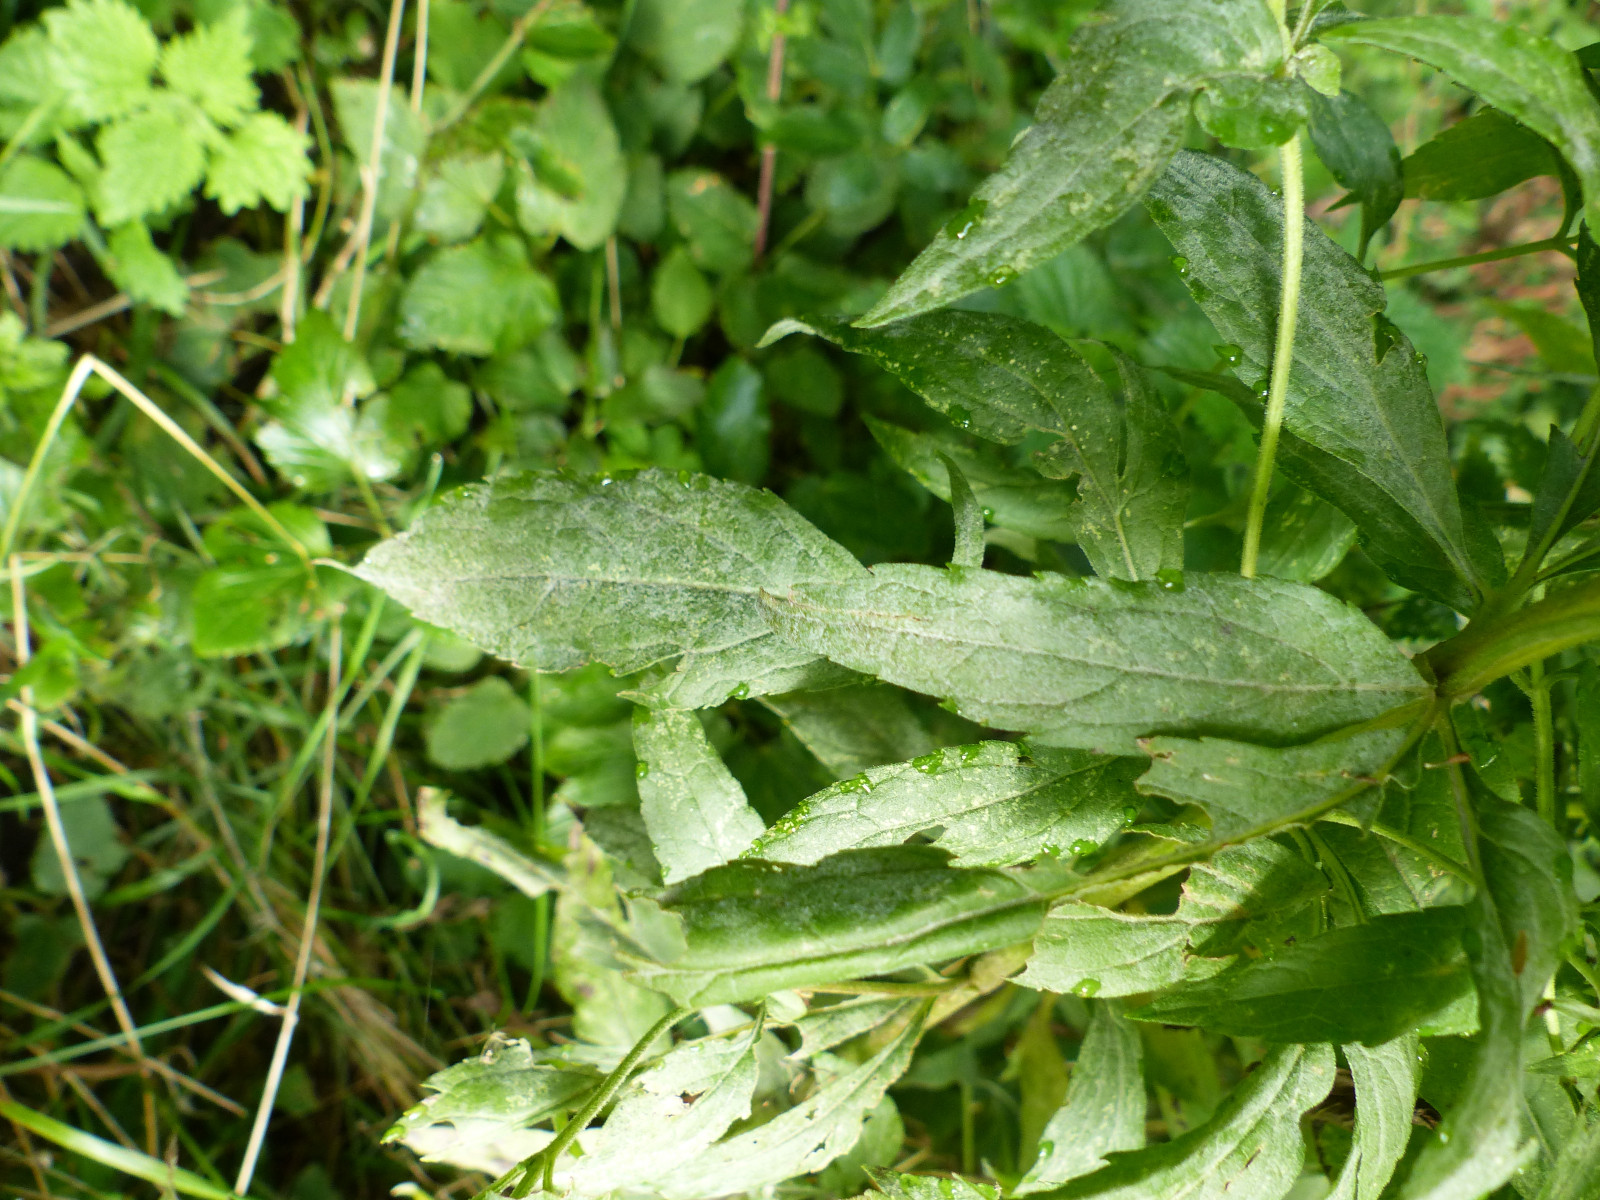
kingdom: Fungi
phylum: Ascomycota
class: Leotiomycetes
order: Helotiales
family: Erysiphaceae
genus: Golovinomyces
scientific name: Golovinomyces circumfusus
